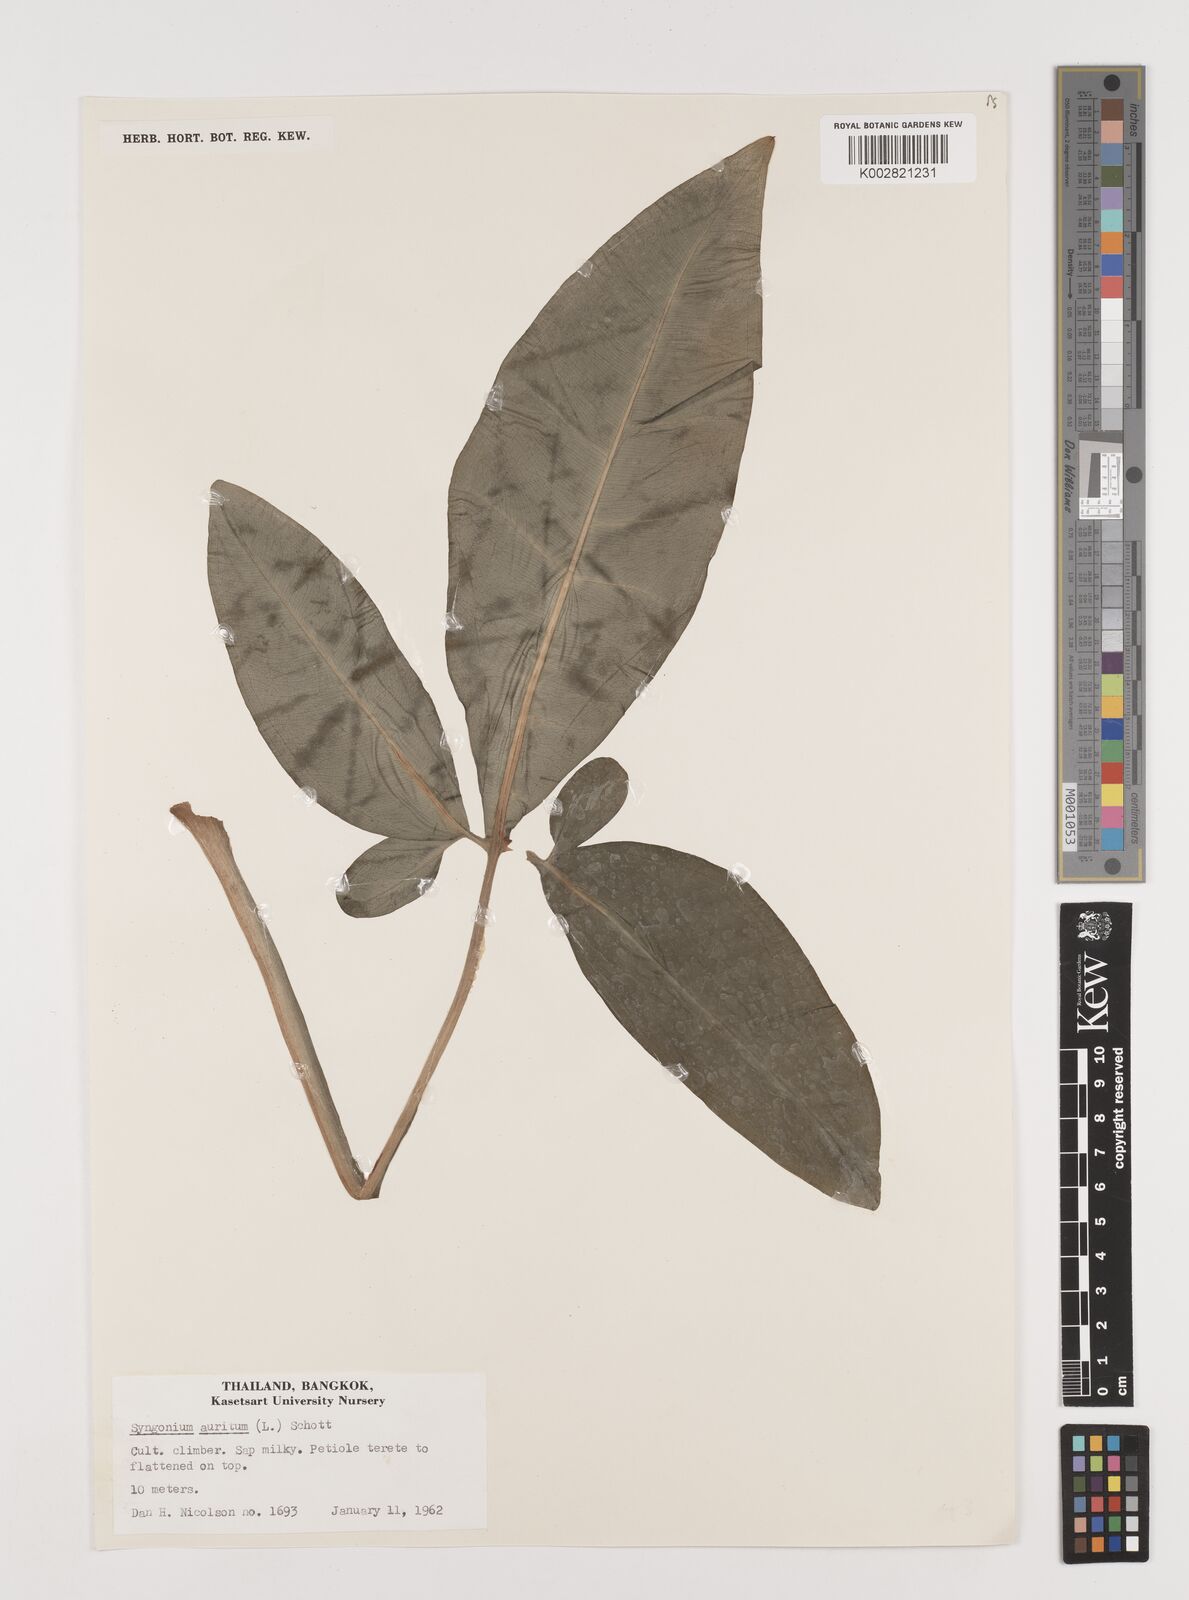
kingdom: Plantae
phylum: Tracheophyta
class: Liliopsida
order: Alismatales
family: Araceae
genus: Syngonium
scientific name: Syngonium auritum
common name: Five-fingers
